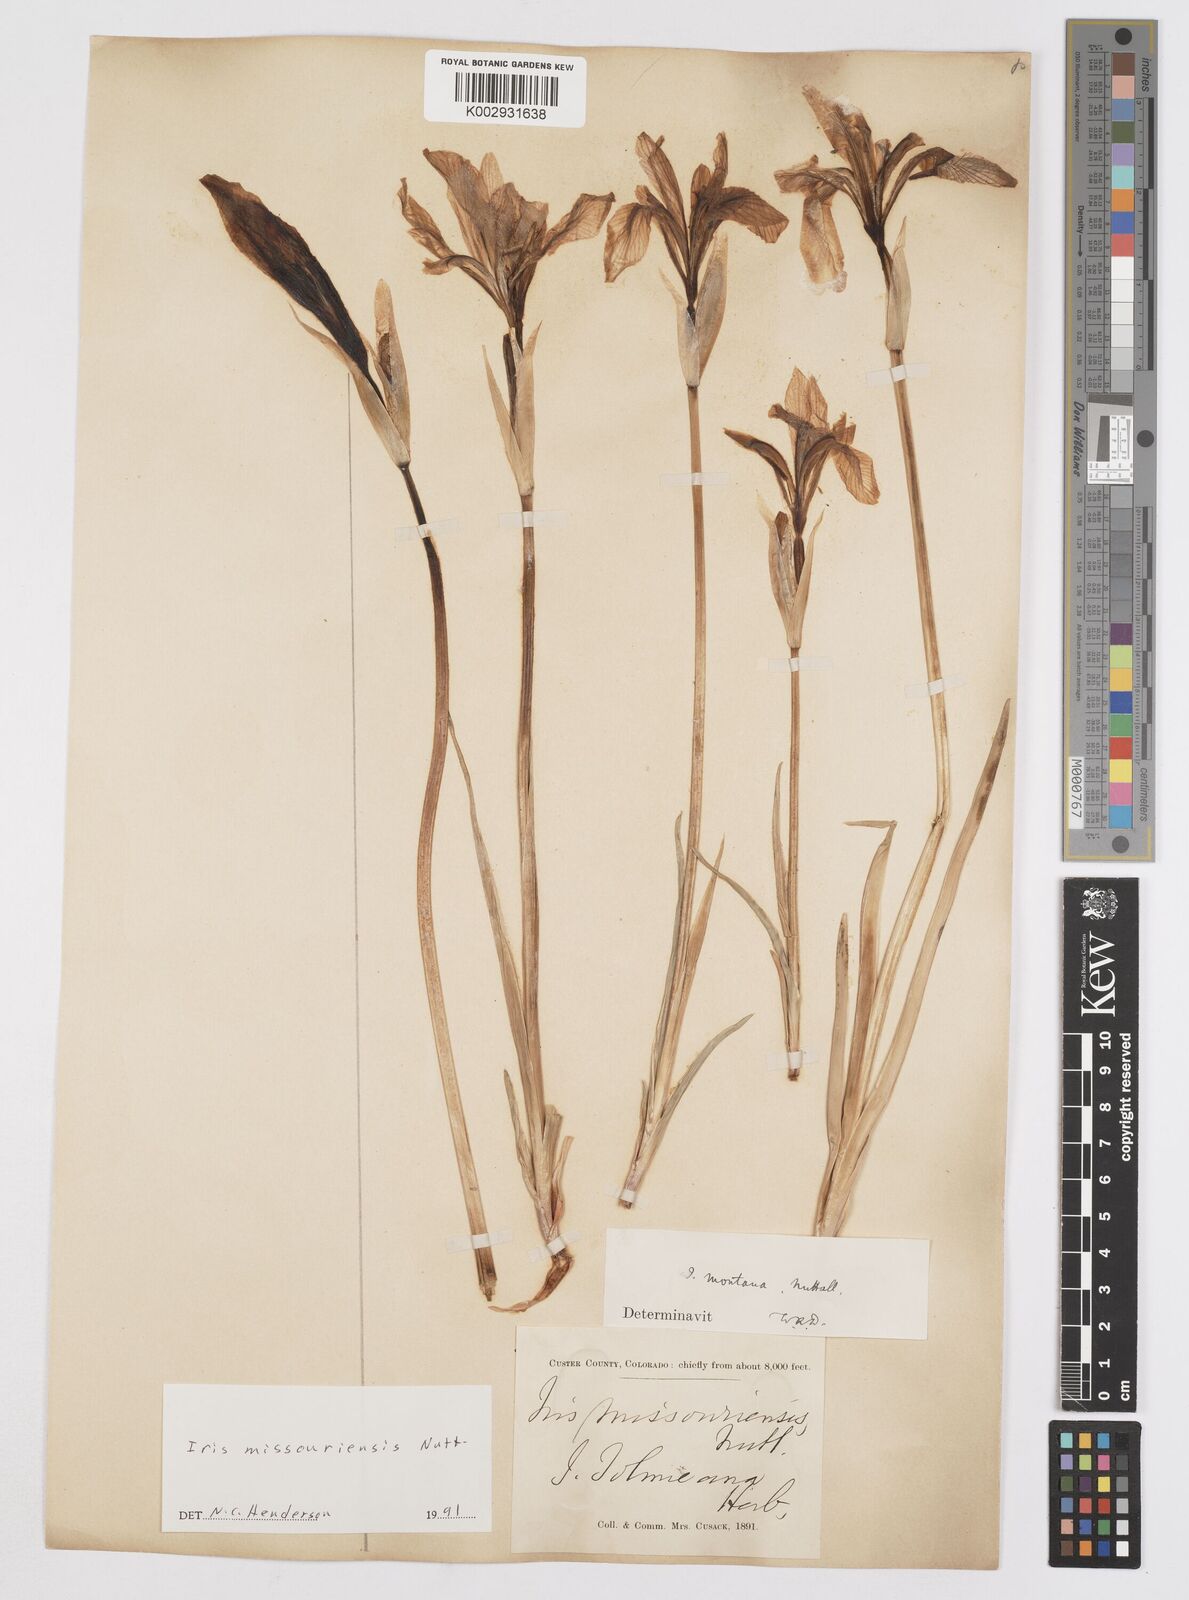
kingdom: Plantae
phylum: Tracheophyta
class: Liliopsida
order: Asparagales
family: Iridaceae
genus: Iris
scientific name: Iris missouriensis
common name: Rocky mountain iris
